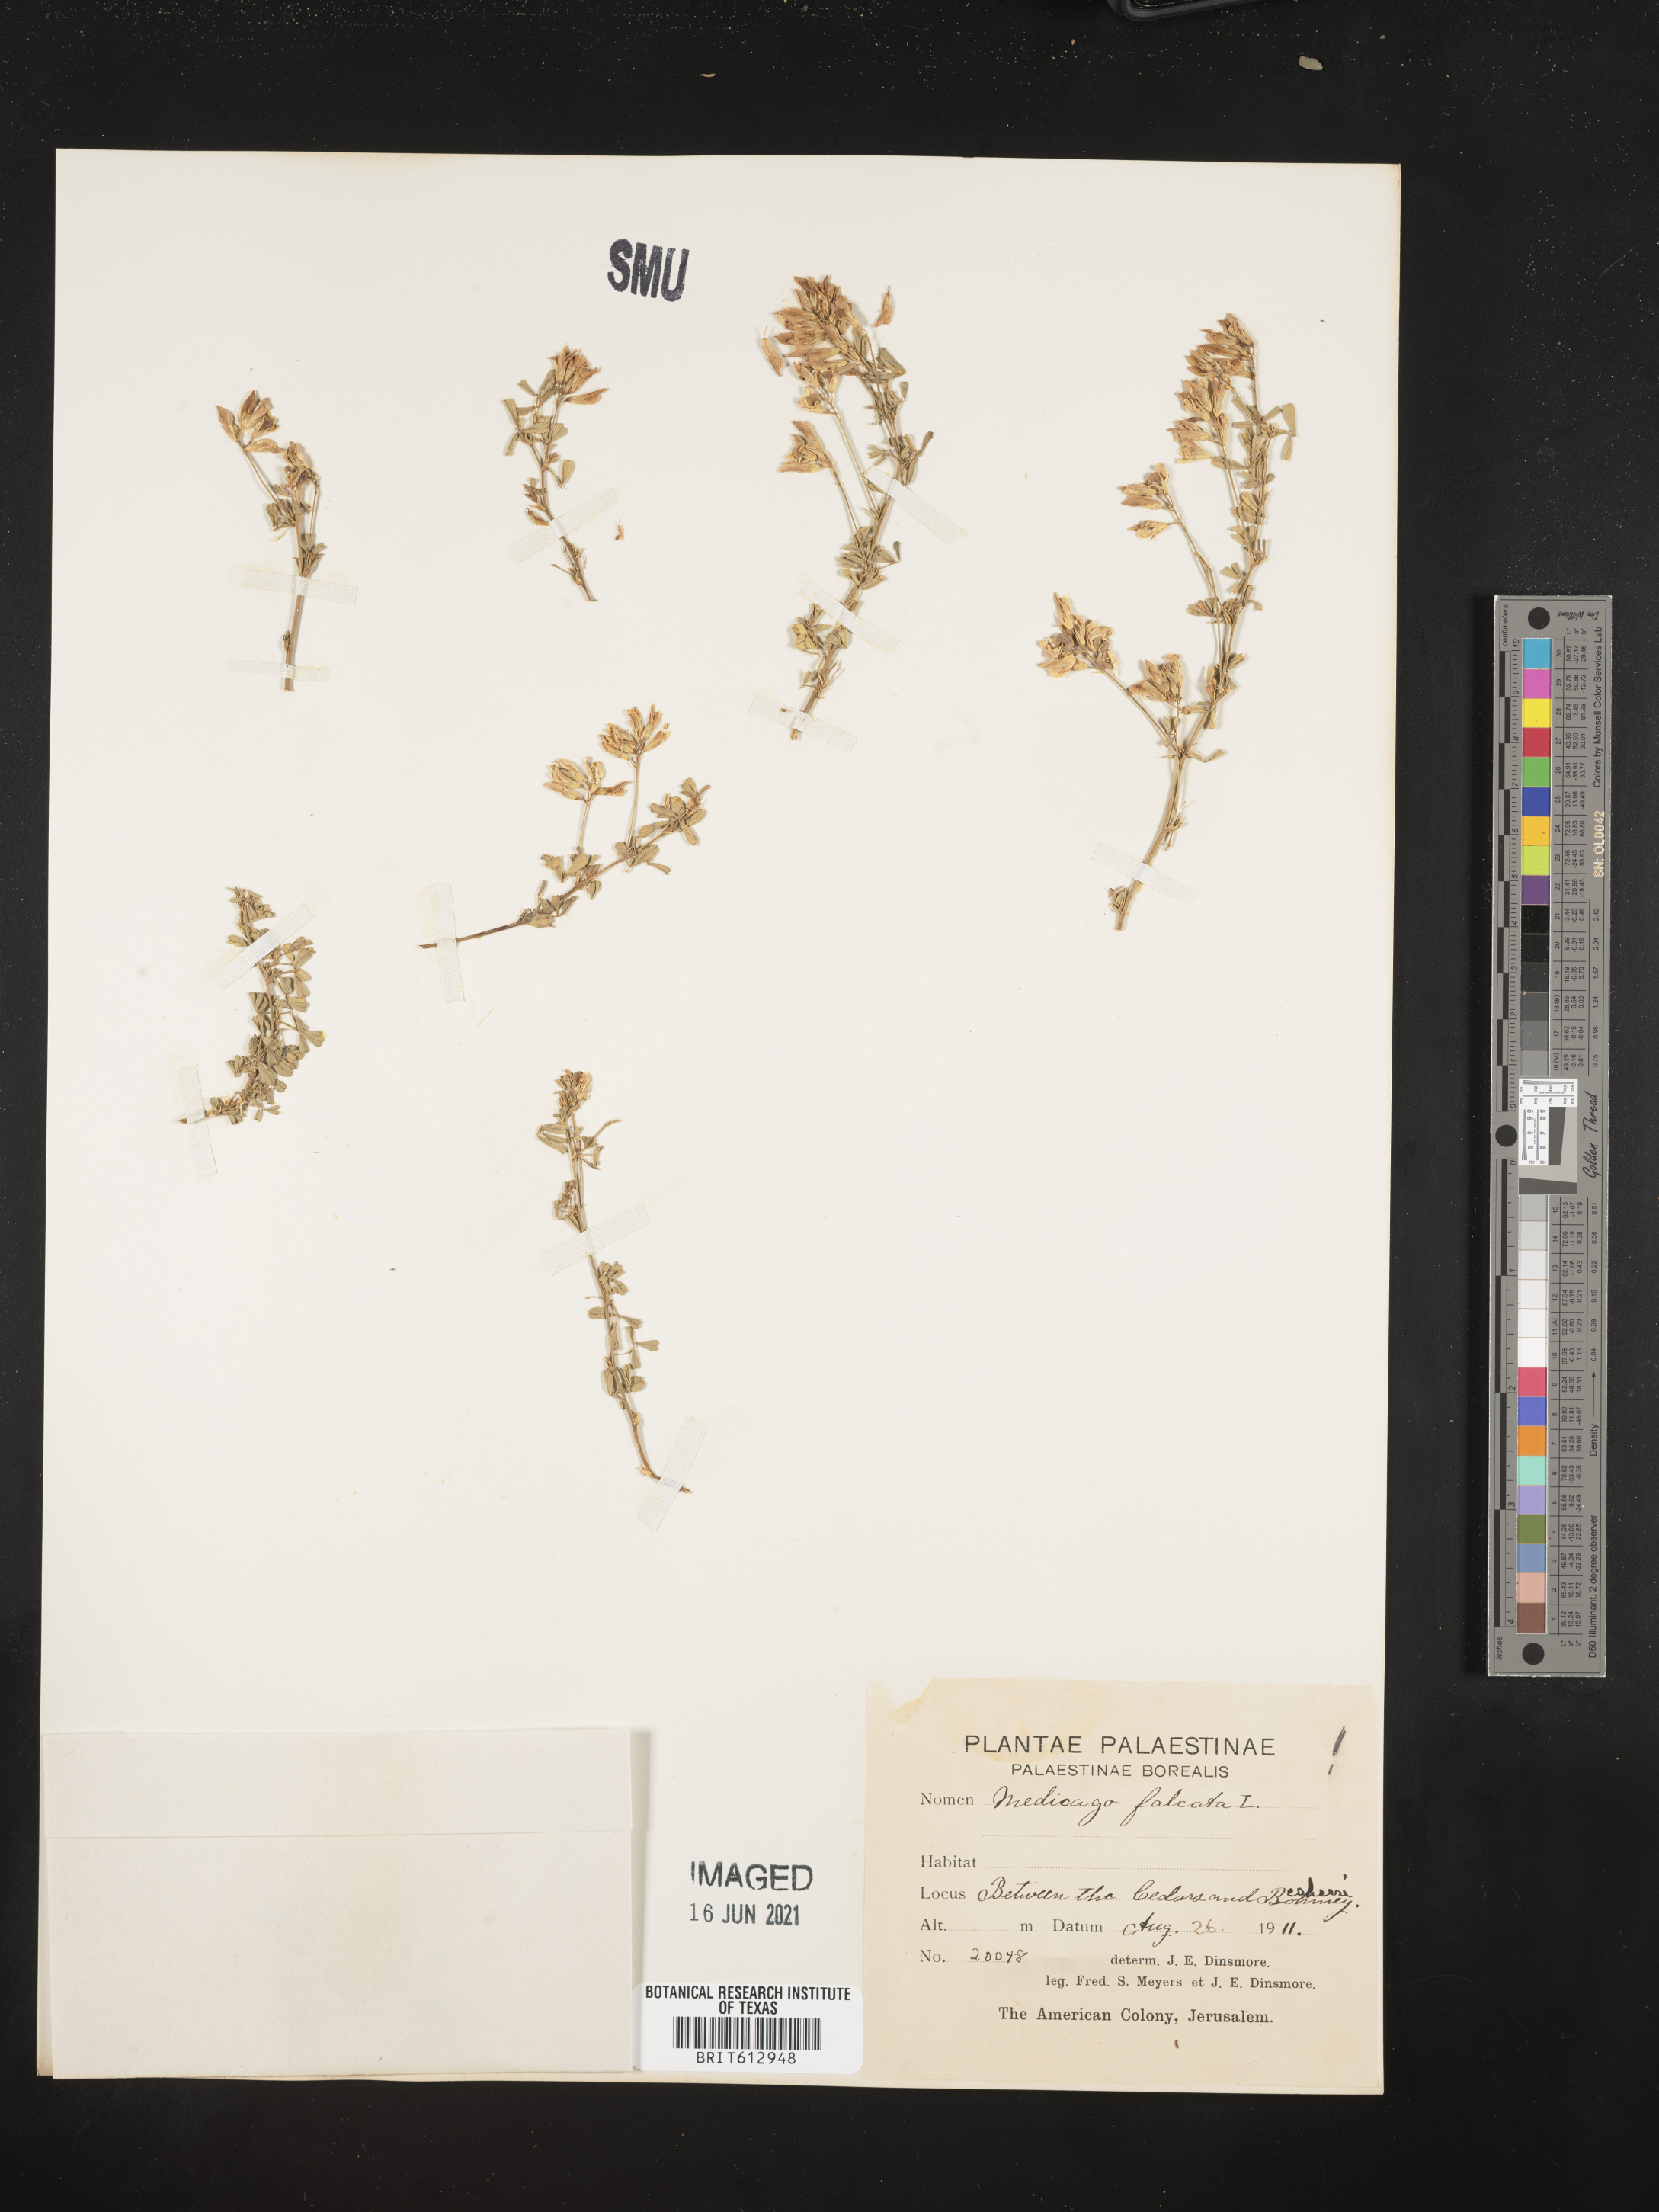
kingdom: Plantae
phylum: Tracheophyta
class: Magnoliopsida
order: Fabales
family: Fabaceae
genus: Medicago
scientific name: Medicago sativa
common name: Alfalfa
